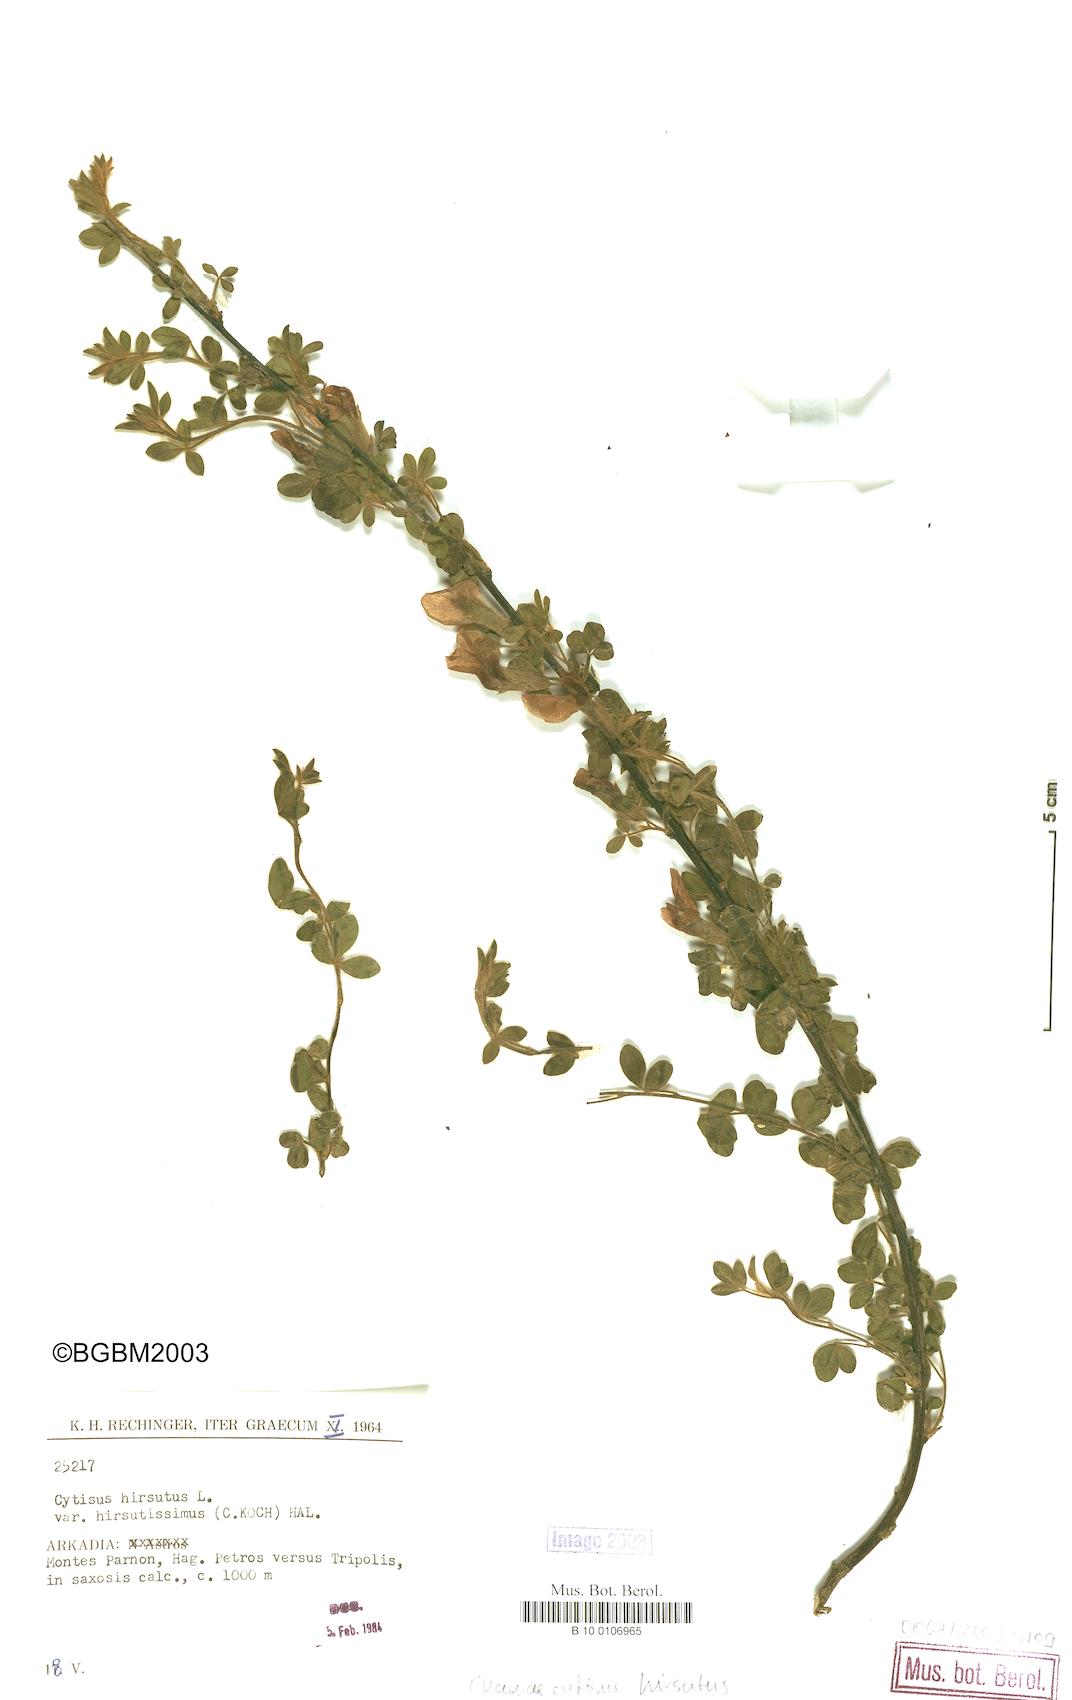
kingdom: Plantae
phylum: Tracheophyta
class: Magnoliopsida
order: Fabales
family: Fabaceae
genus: Chamaecytisus
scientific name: Chamaecytisus hirsutus
